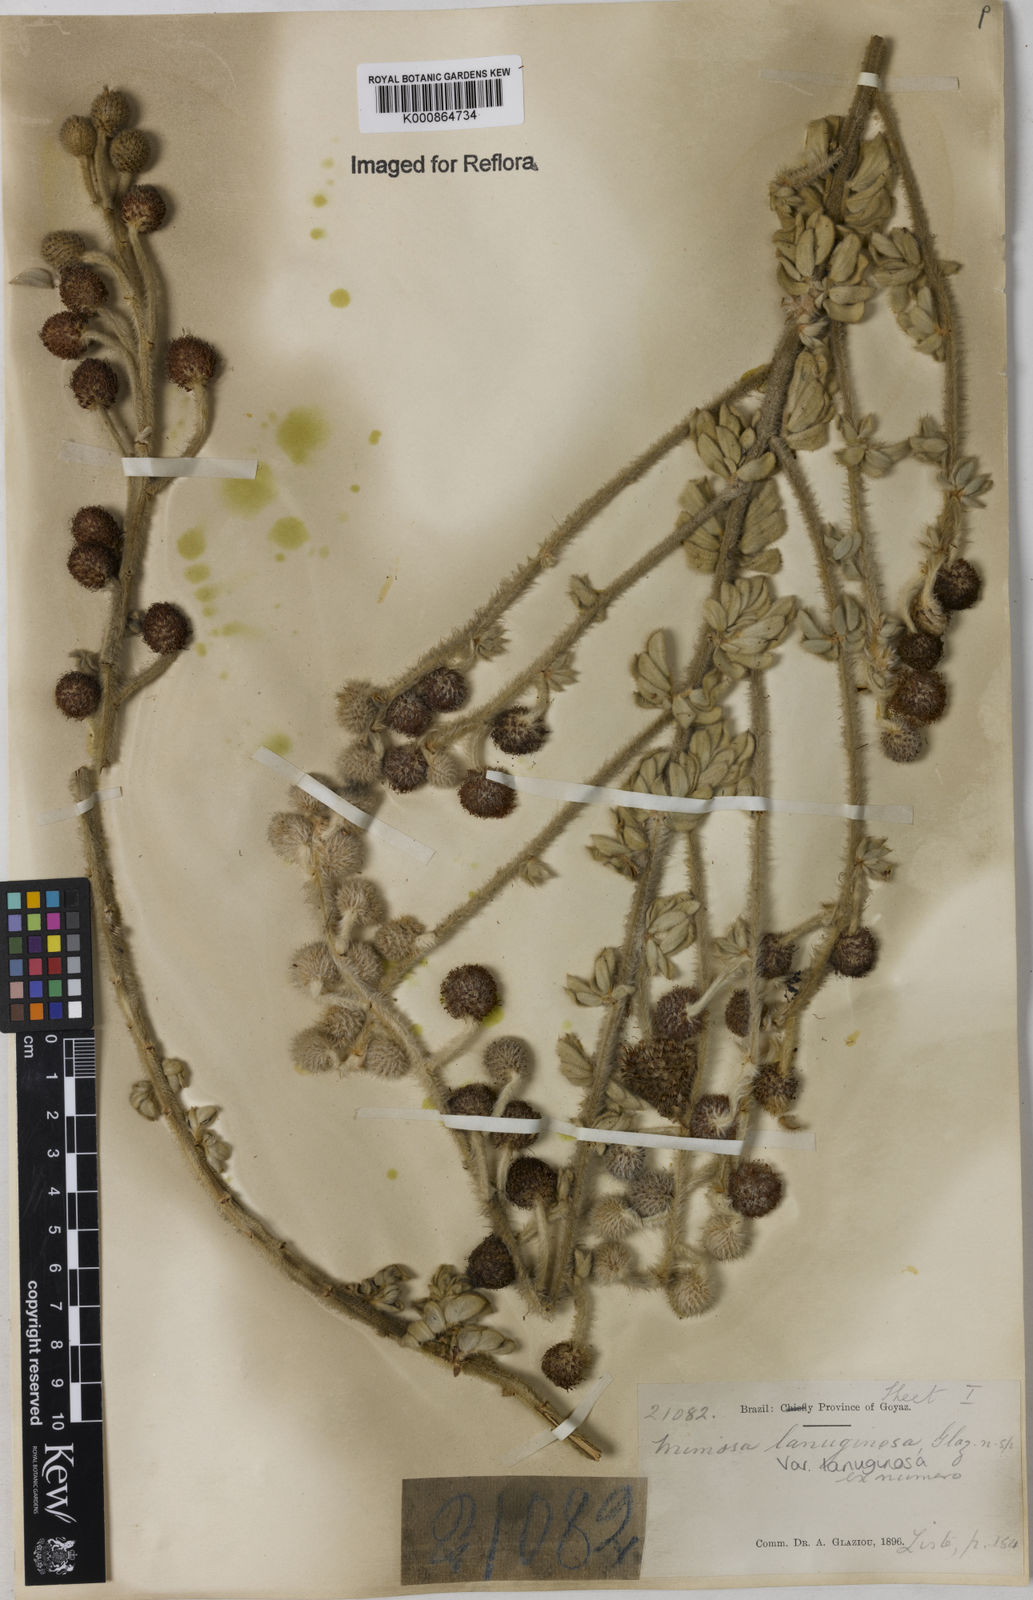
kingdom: Plantae
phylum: Tracheophyta
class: Magnoliopsida
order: Fabales
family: Fabaceae
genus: Mimosa
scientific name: Mimosa lanuginosa
